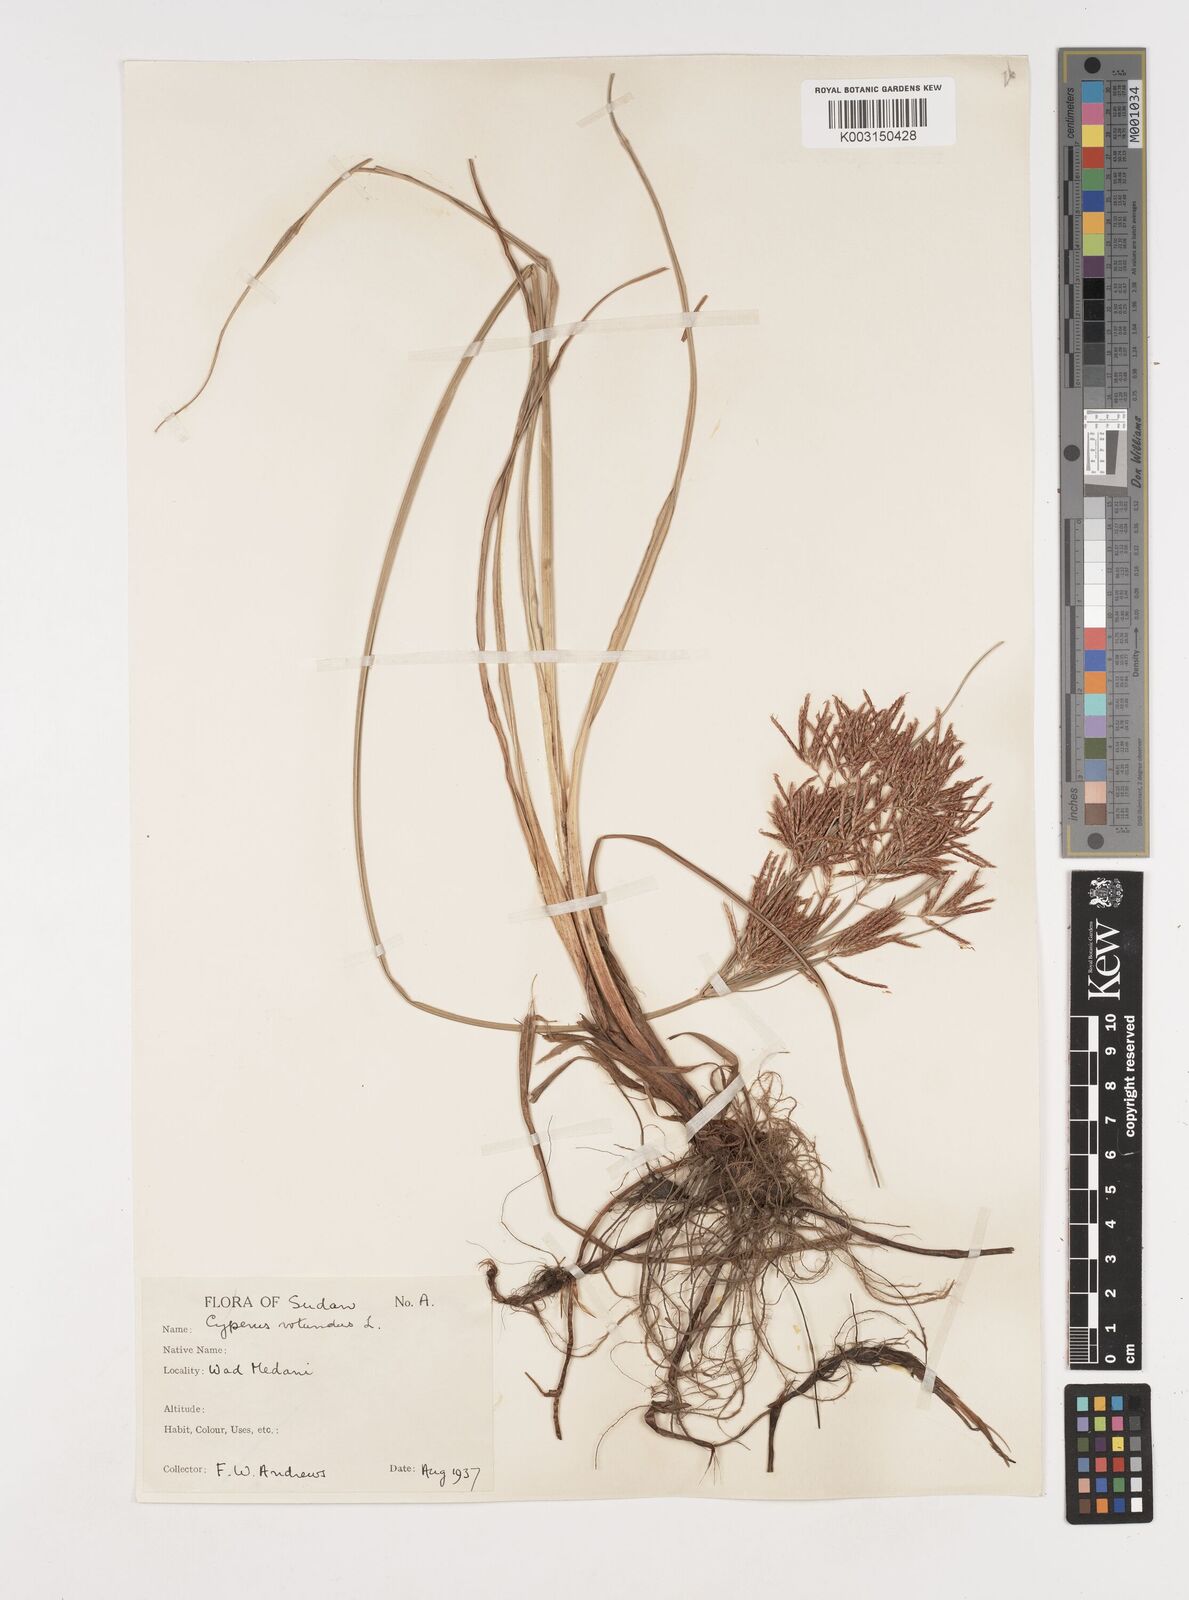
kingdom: Plantae
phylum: Tracheophyta
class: Liliopsida
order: Poales
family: Cyperaceae
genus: Cyperus
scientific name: Cyperus rotundus
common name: Nutgrass
